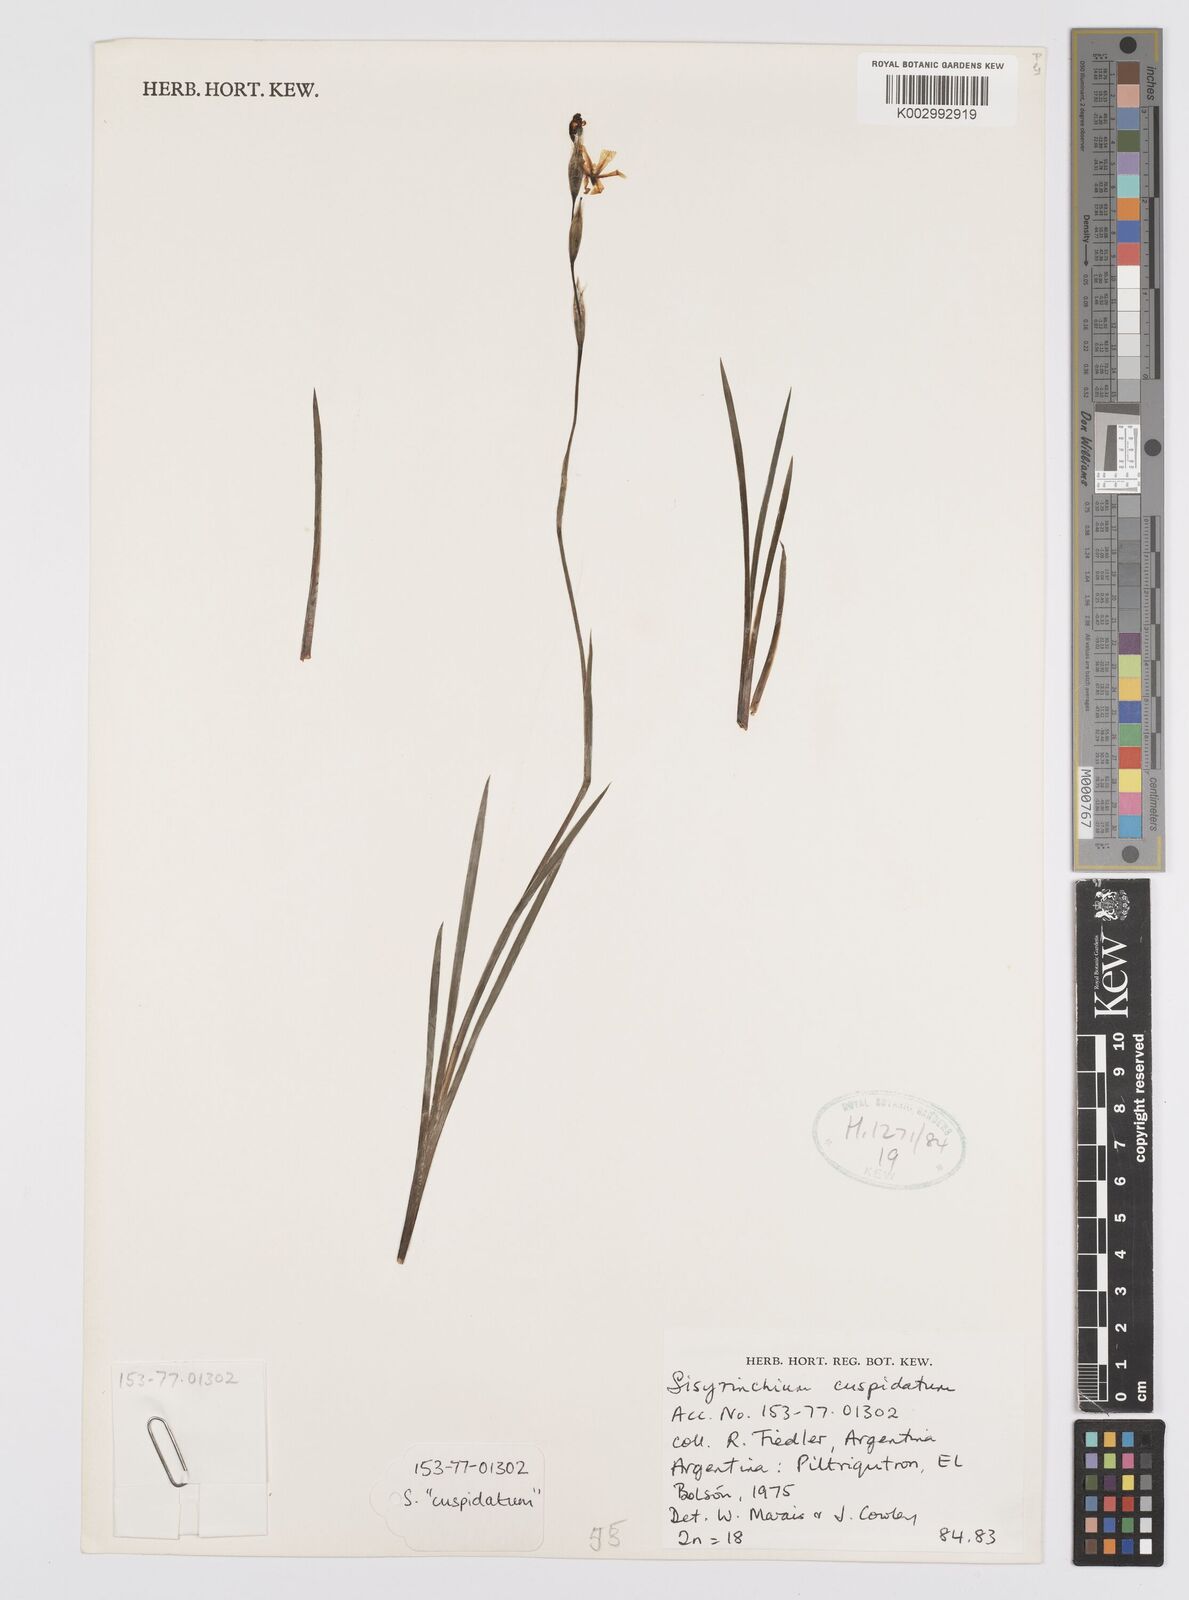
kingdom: Plantae
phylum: Tracheophyta
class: Liliopsida
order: Asparagales
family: Iridaceae
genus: Sisyrinchium
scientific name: Sisyrinchium cuspidatum
